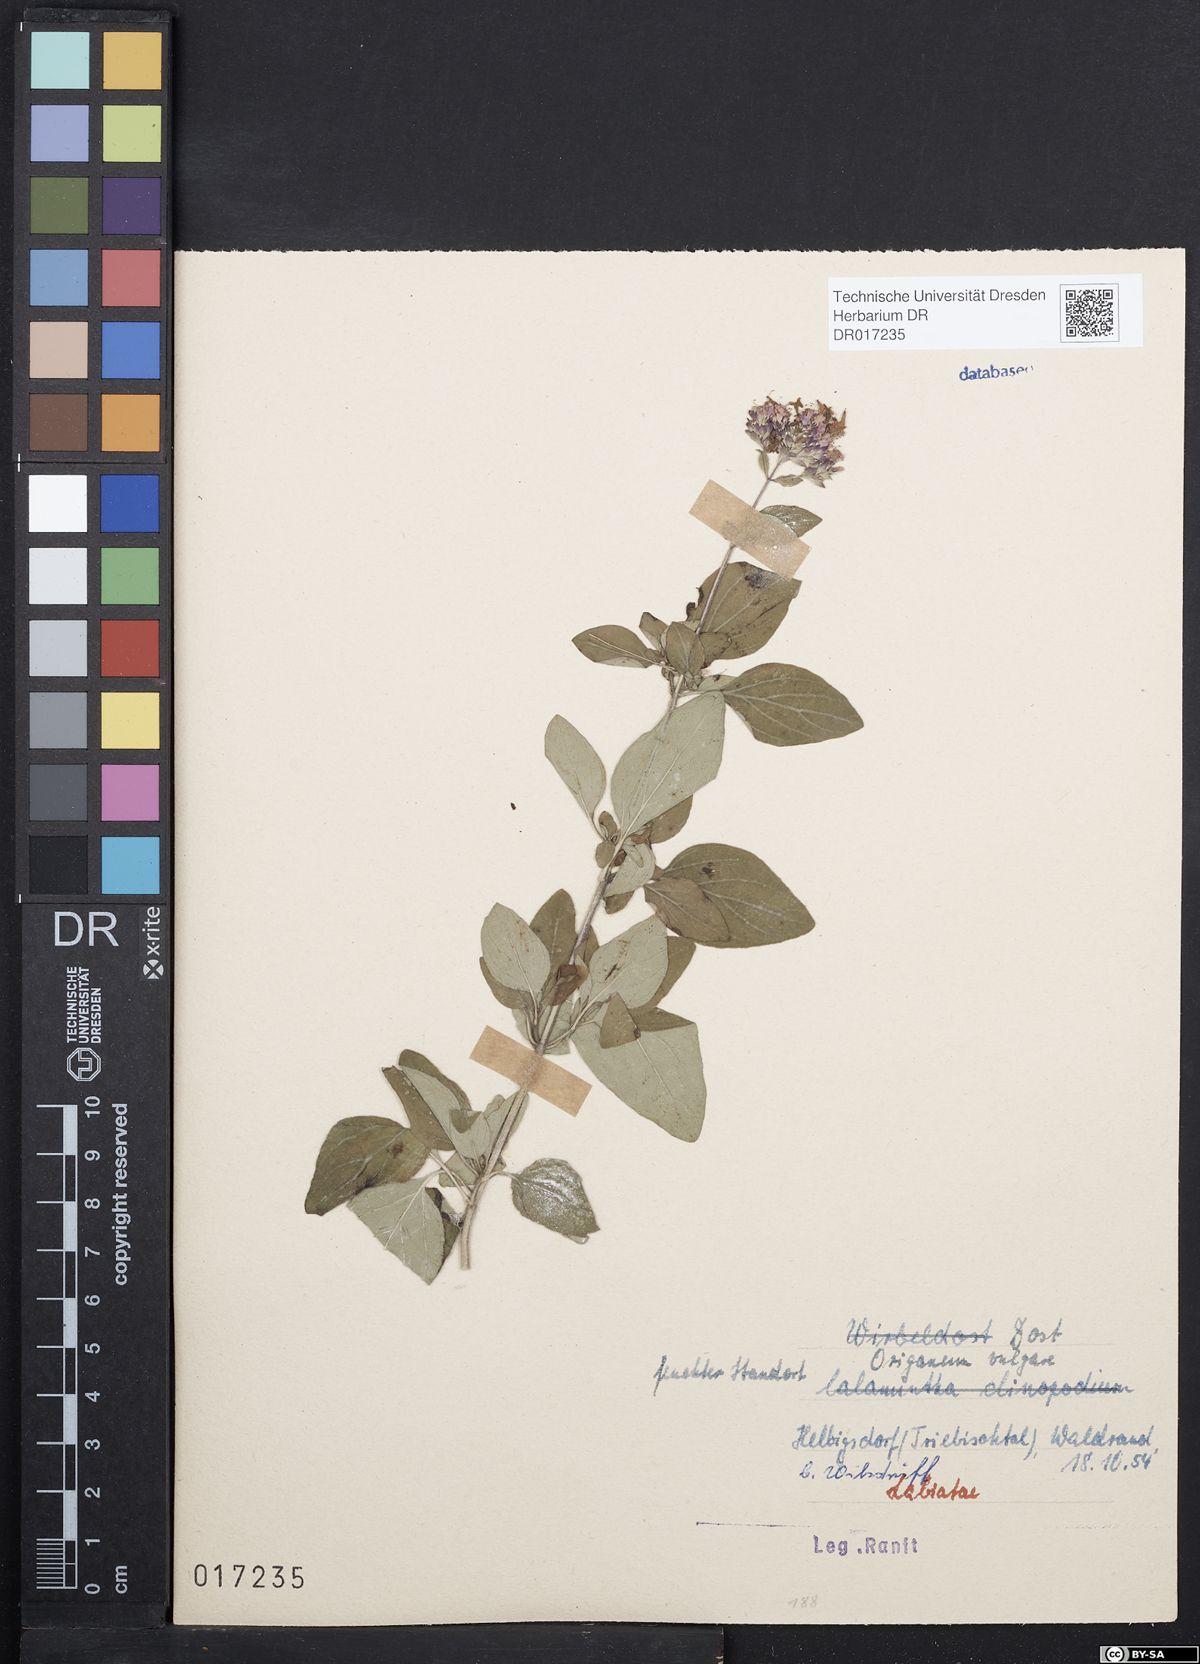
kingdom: Plantae
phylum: Tracheophyta
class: Magnoliopsida
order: Lamiales
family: Lamiaceae
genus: Origanum
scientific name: Origanum vulgare
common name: Wild marjoram
